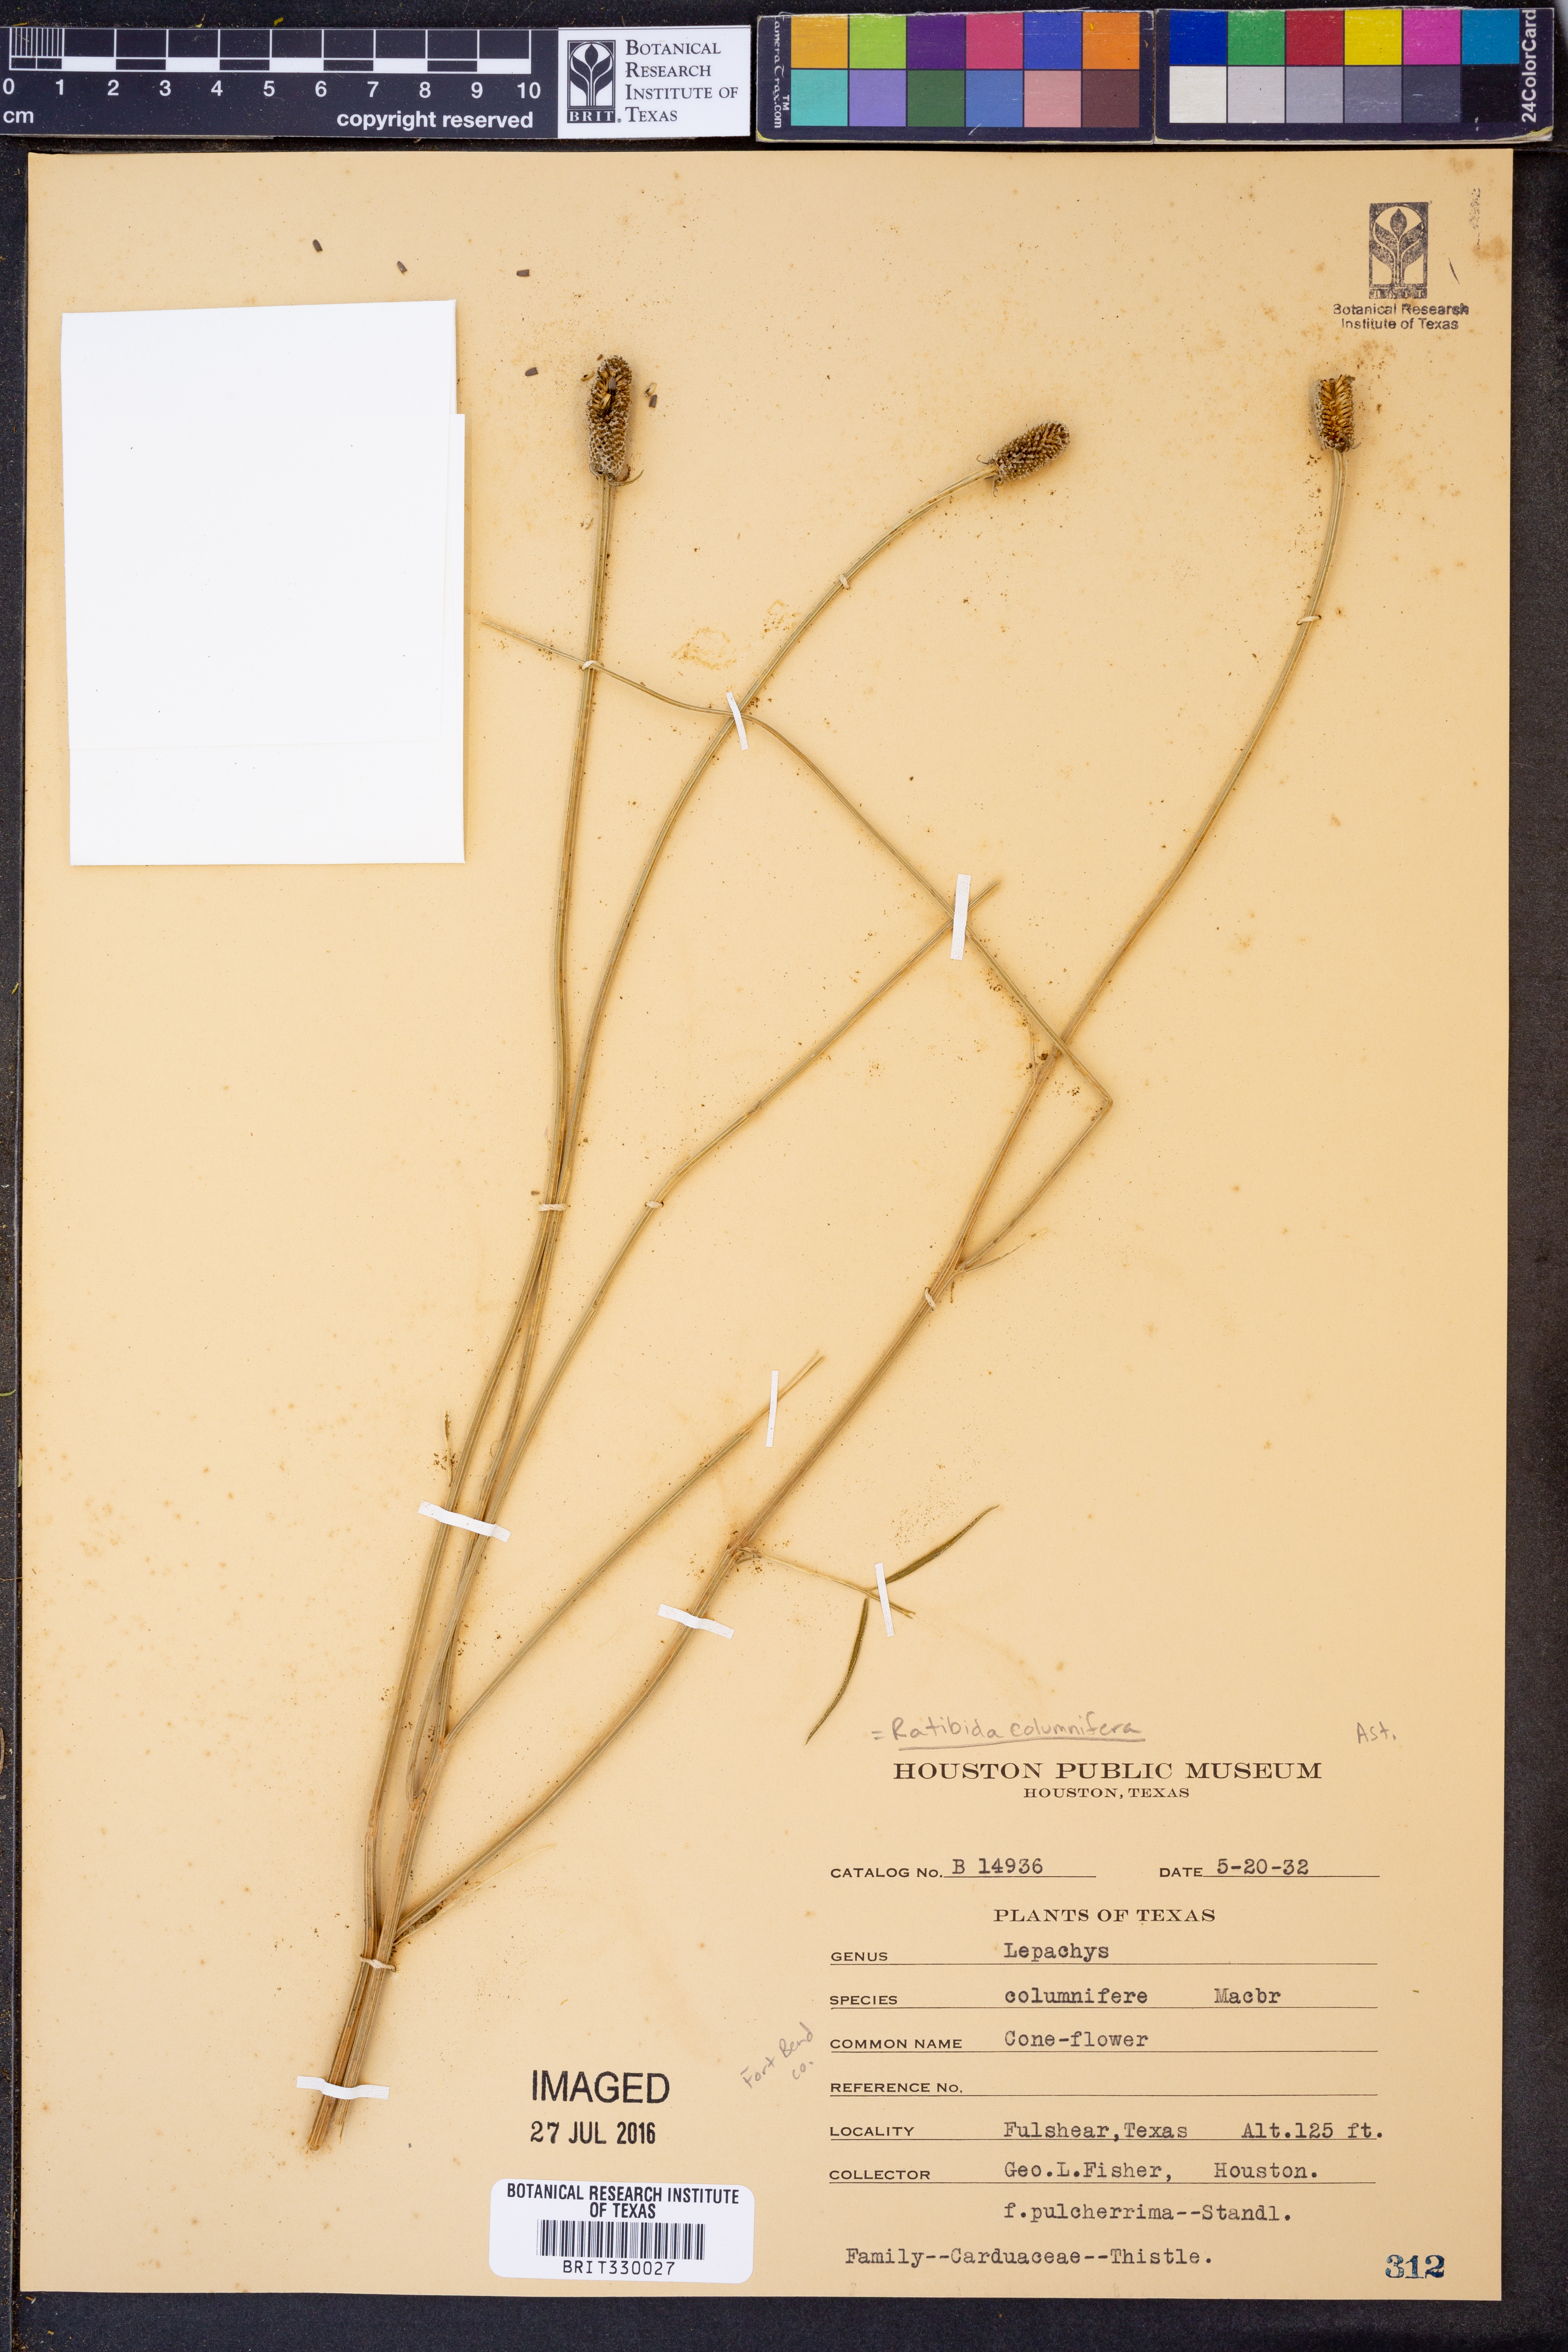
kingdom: Plantae
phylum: Tracheophyta
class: Magnoliopsida
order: Asterales
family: Asteraceae
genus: Ratibida
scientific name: Ratibida columnifera
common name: Prairie coneflower
